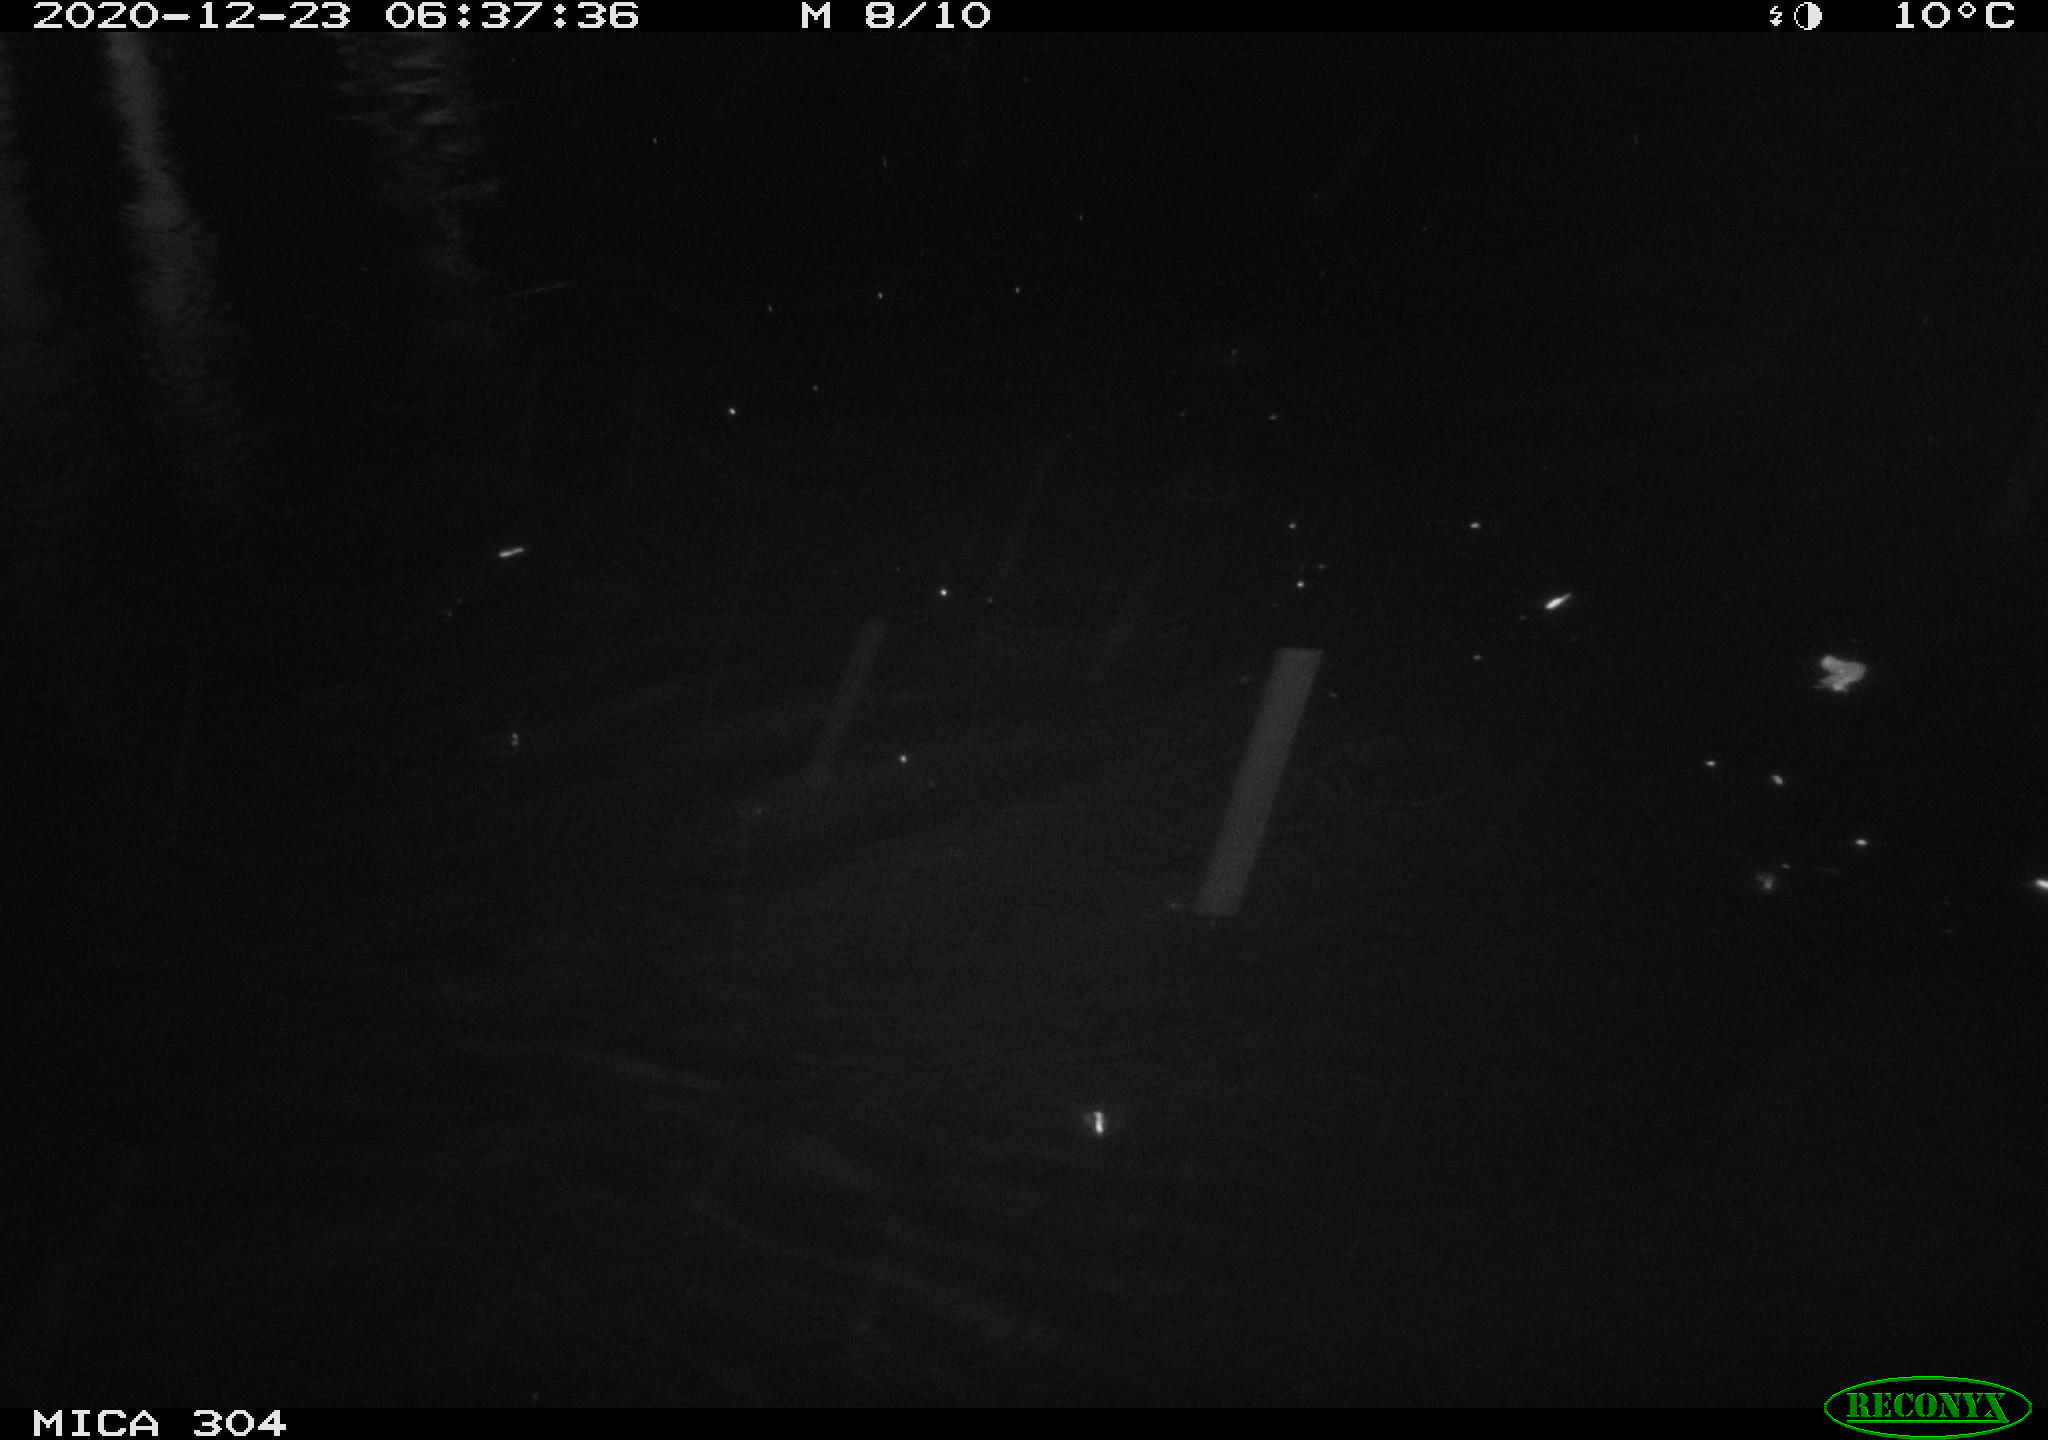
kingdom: Animalia
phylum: Chordata
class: Aves
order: Gruiformes
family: Rallidae
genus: Fulica
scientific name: Fulica atra
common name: Eurasian coot
